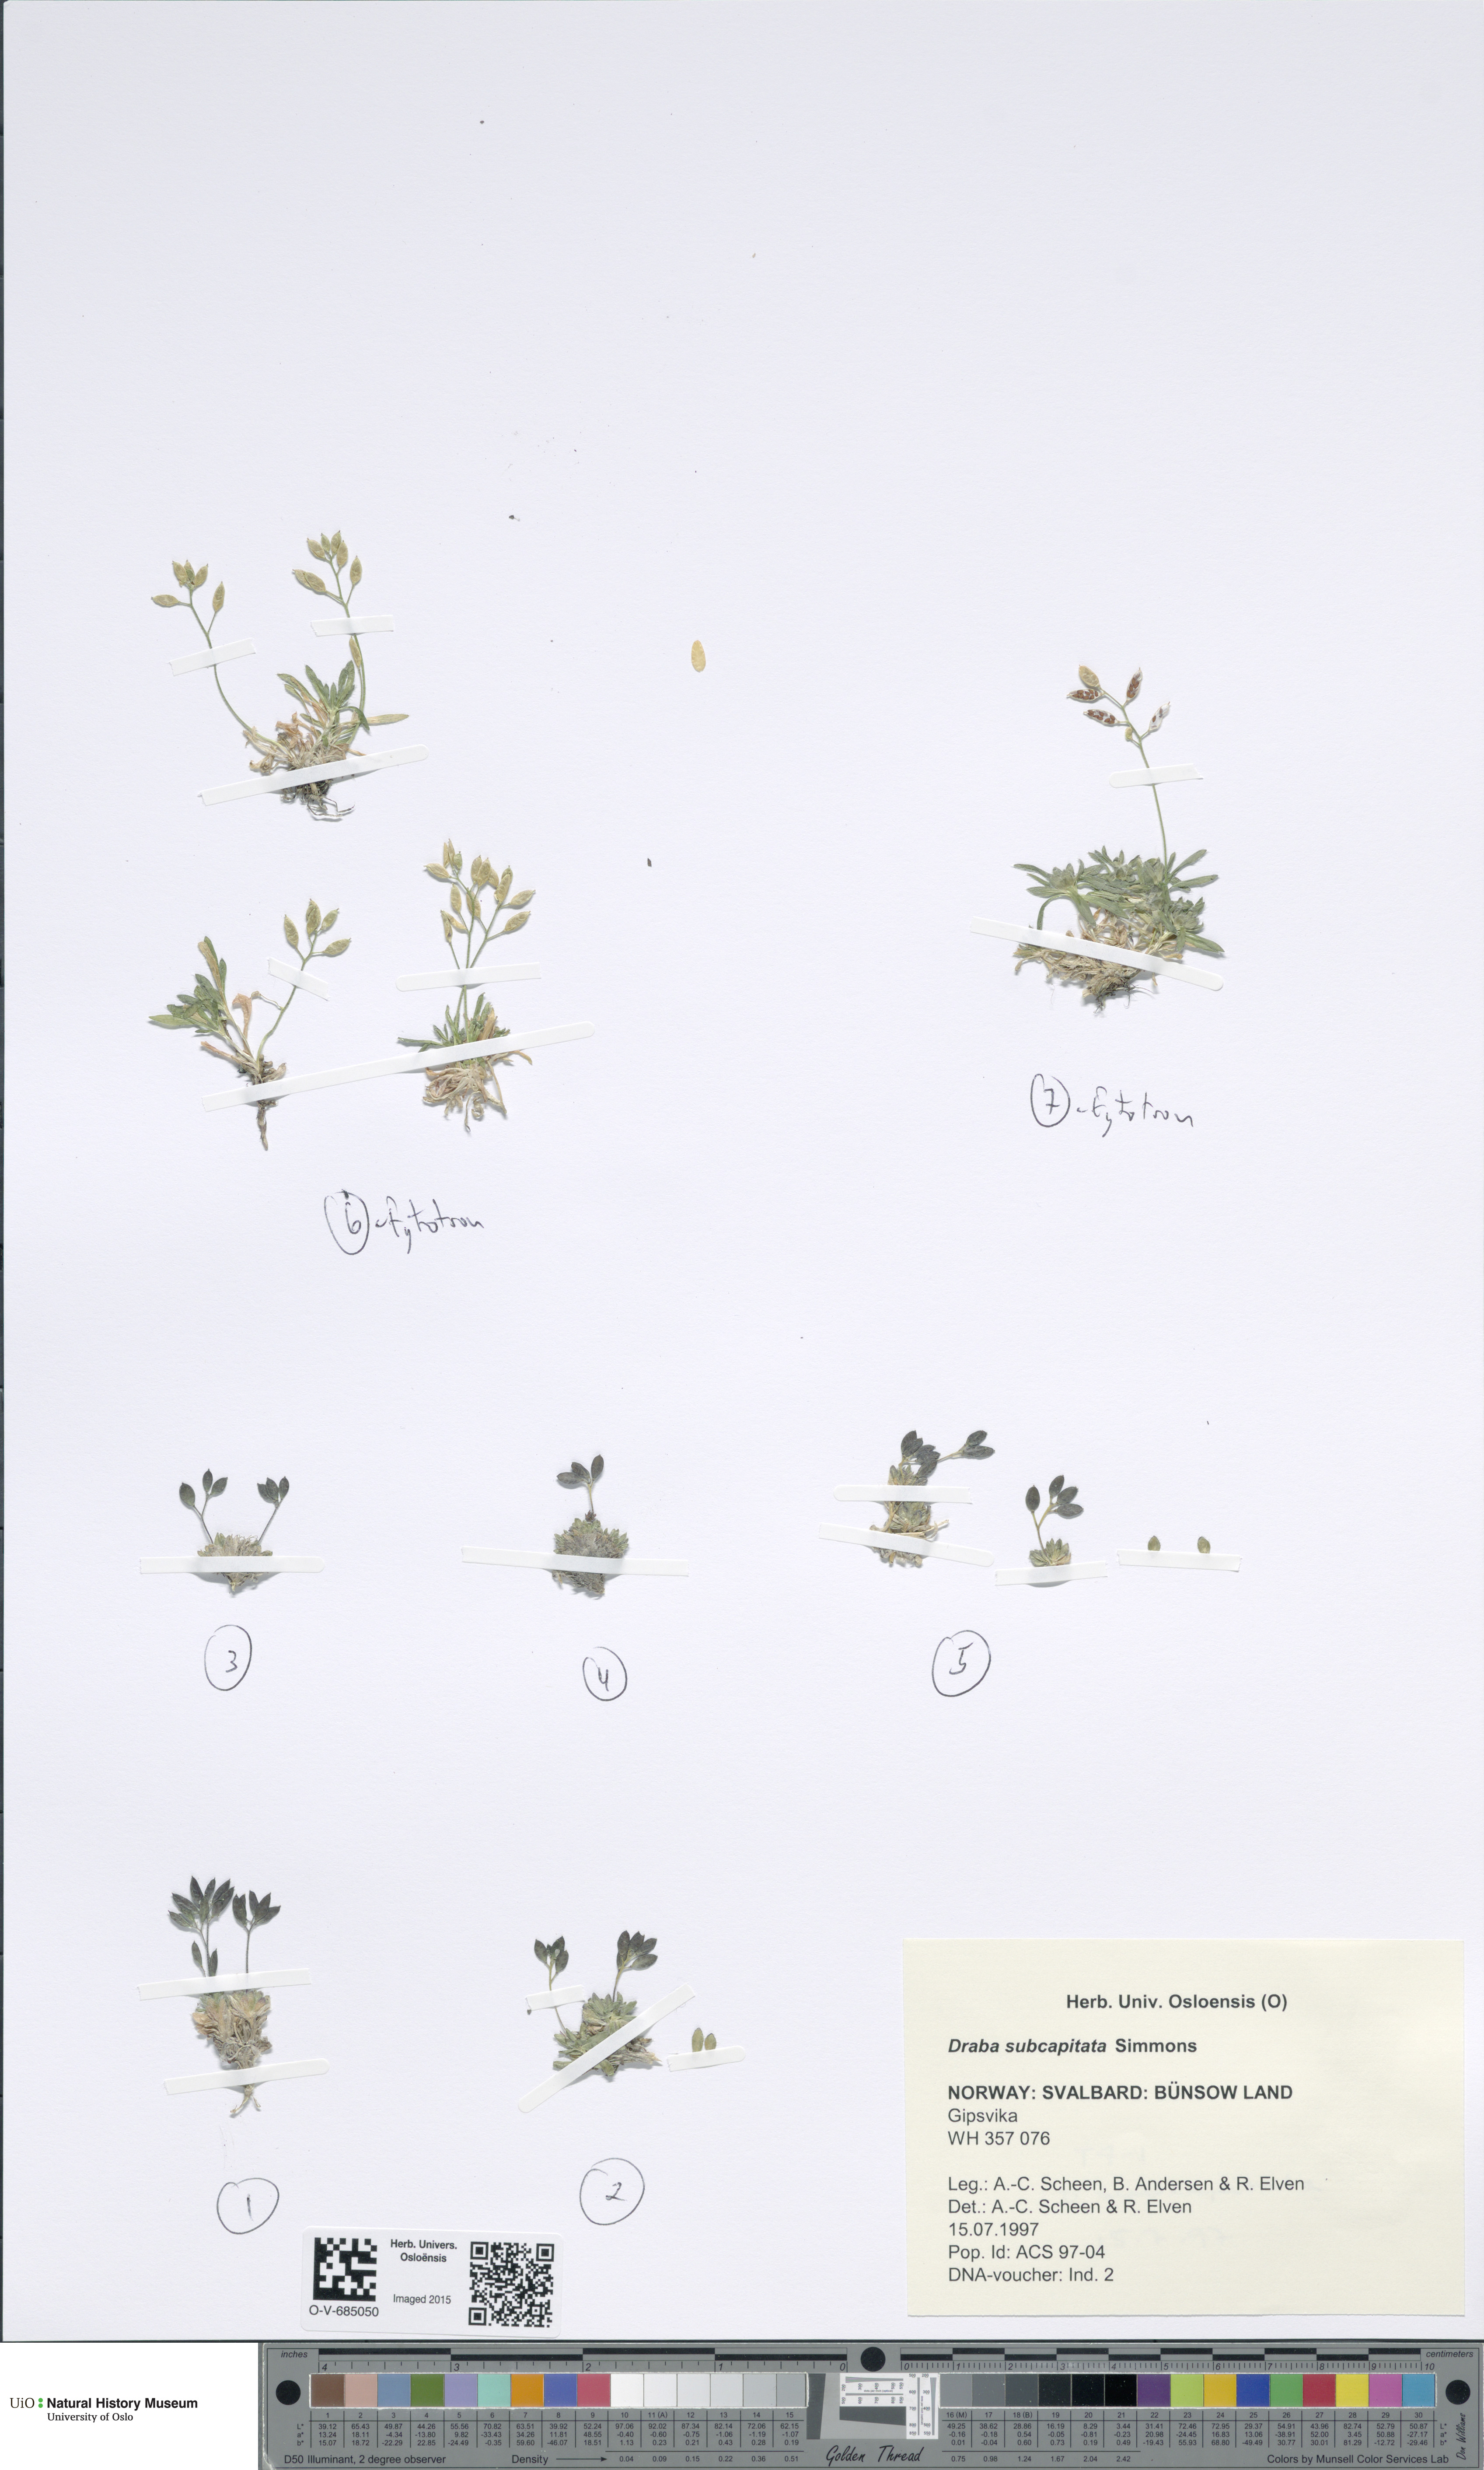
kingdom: Plantae
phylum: Tracheophyta
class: Magnoliopsida
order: Brassicales
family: Brassicaceae
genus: Draba
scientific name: Draba subcapitata
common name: Ellesmere island draba
